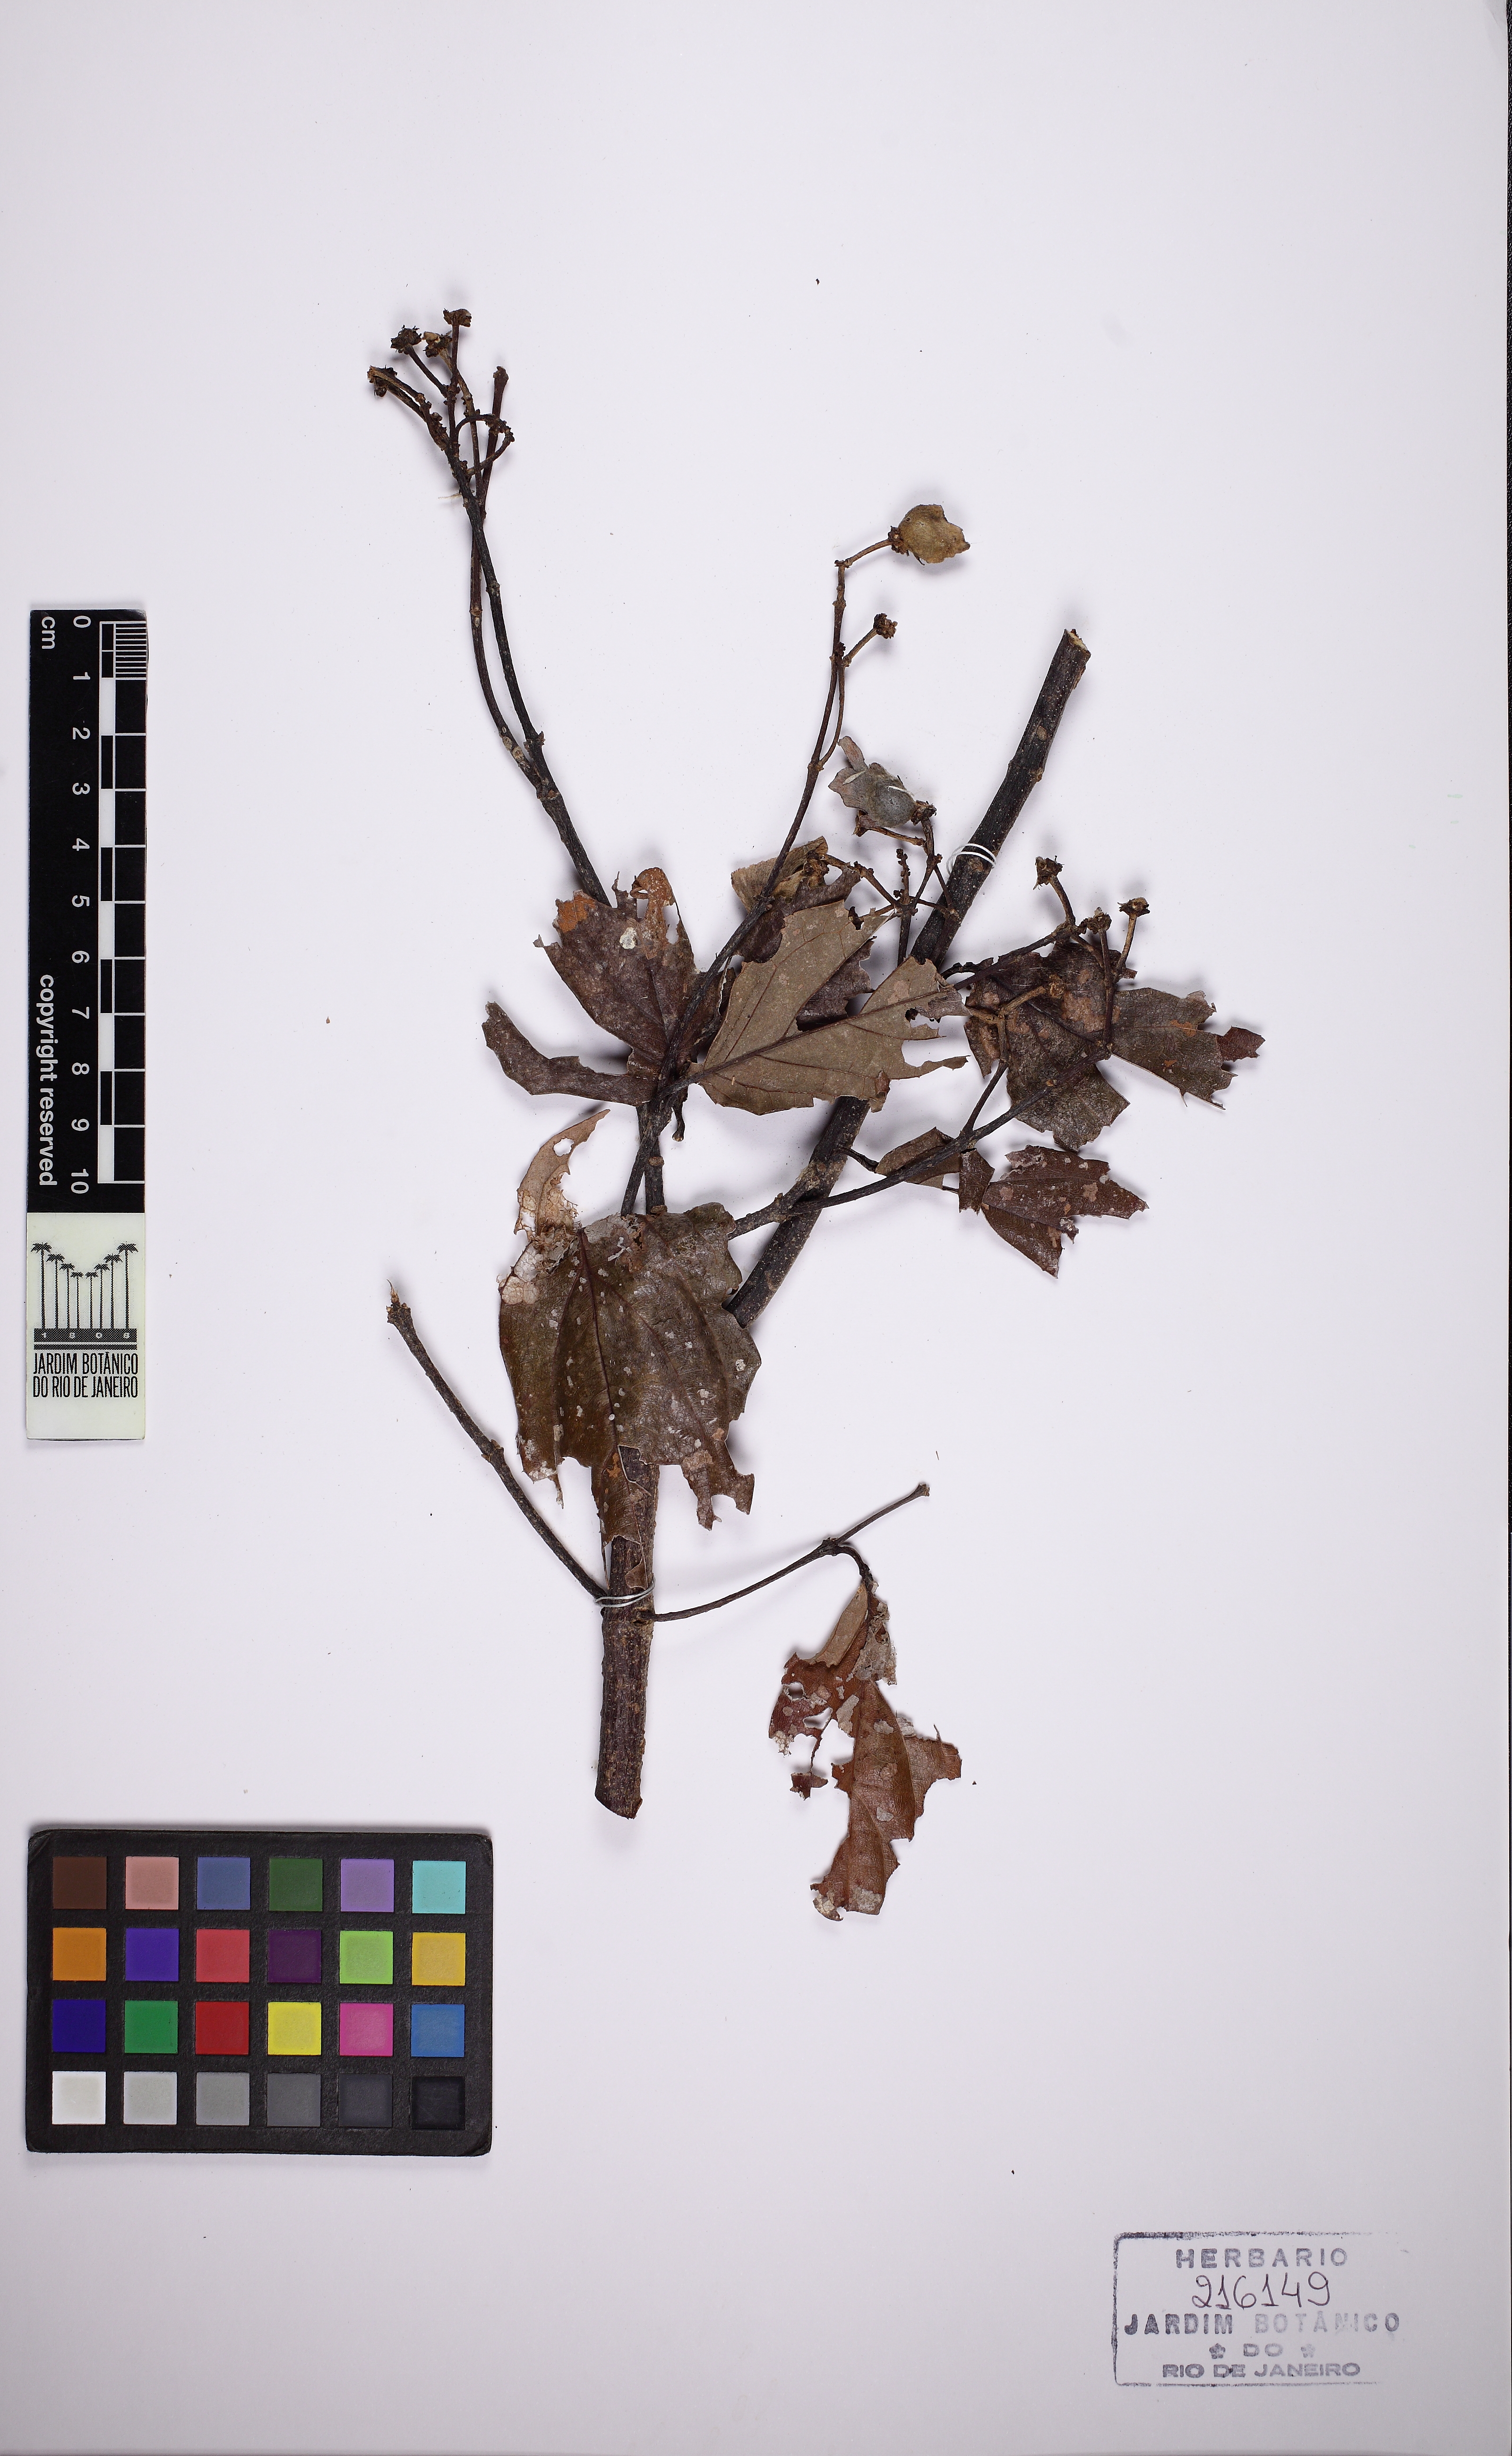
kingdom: Plantae
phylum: Tracheophyta
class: Magnoliopsida
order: Malpighiales
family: Malpighiaceae
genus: Bronwenia
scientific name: Bronwenia megaptera
